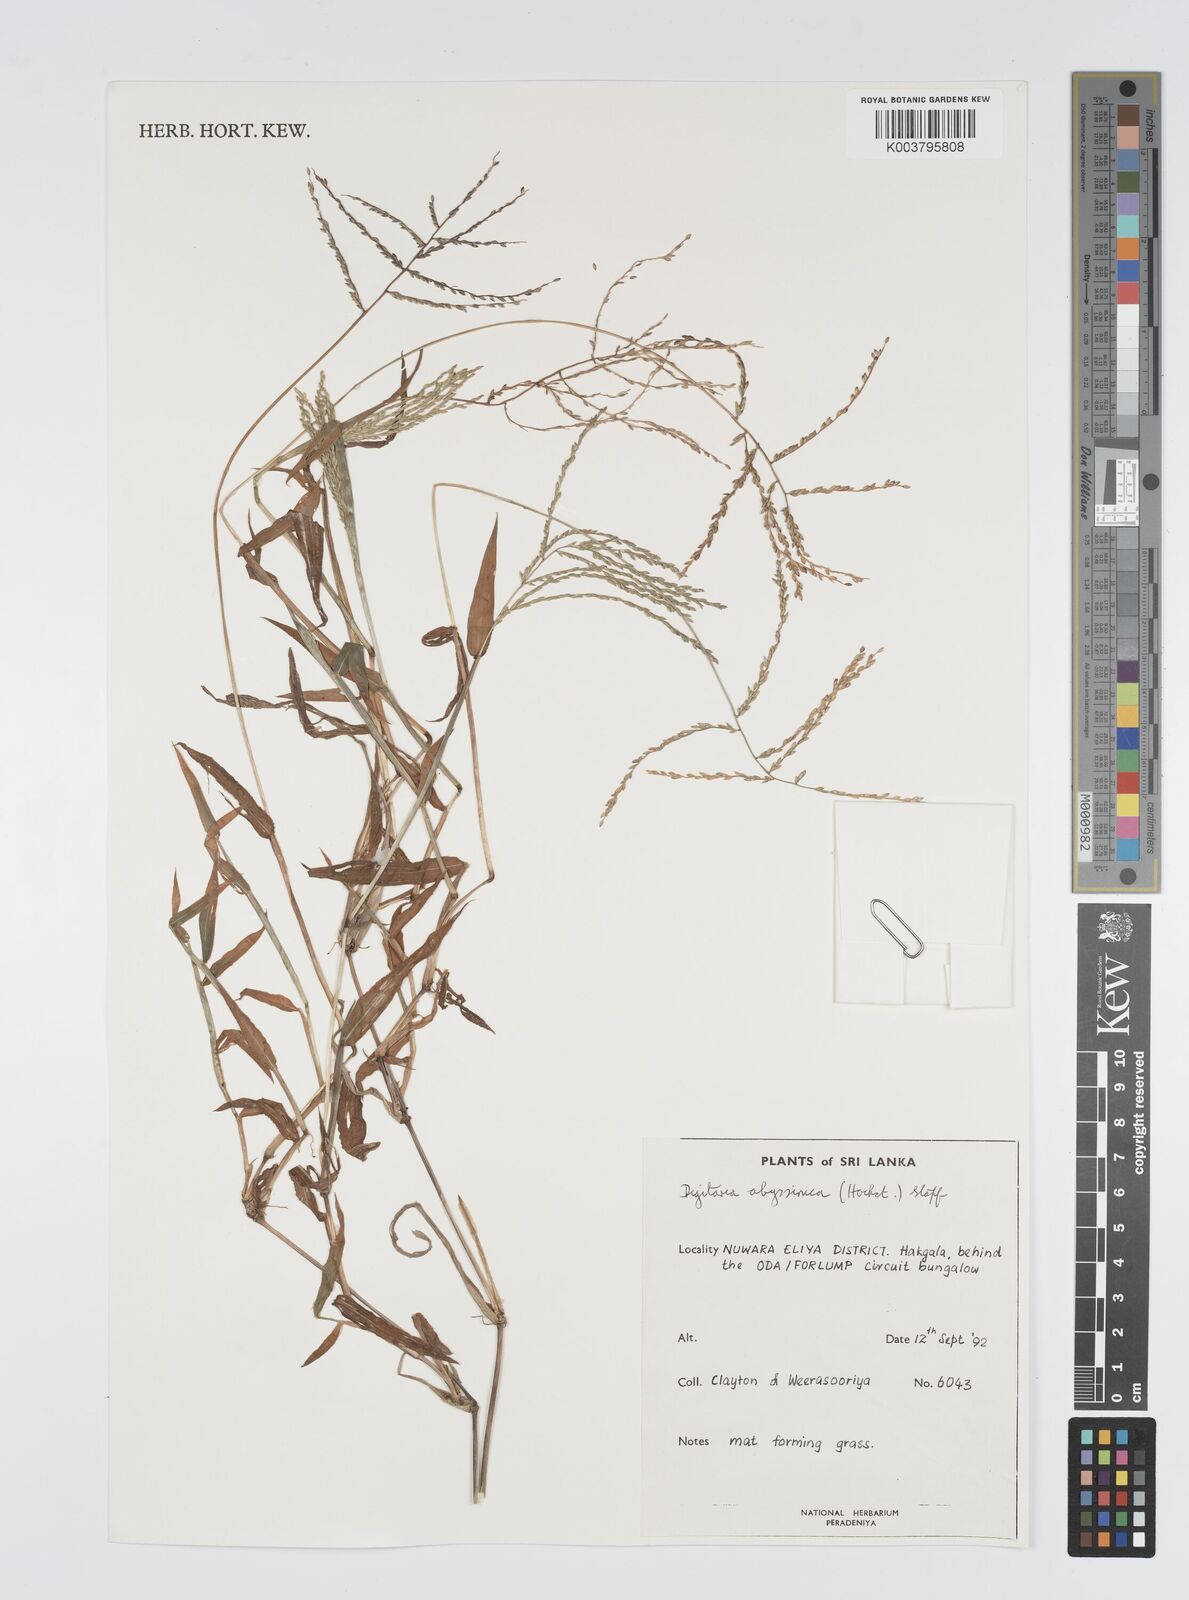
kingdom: Plantae
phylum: Tracheophyta
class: Liliopsida
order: Poales
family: Poaceae
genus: Digitaria
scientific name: Digitaria abyssinica
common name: African couchgrass
